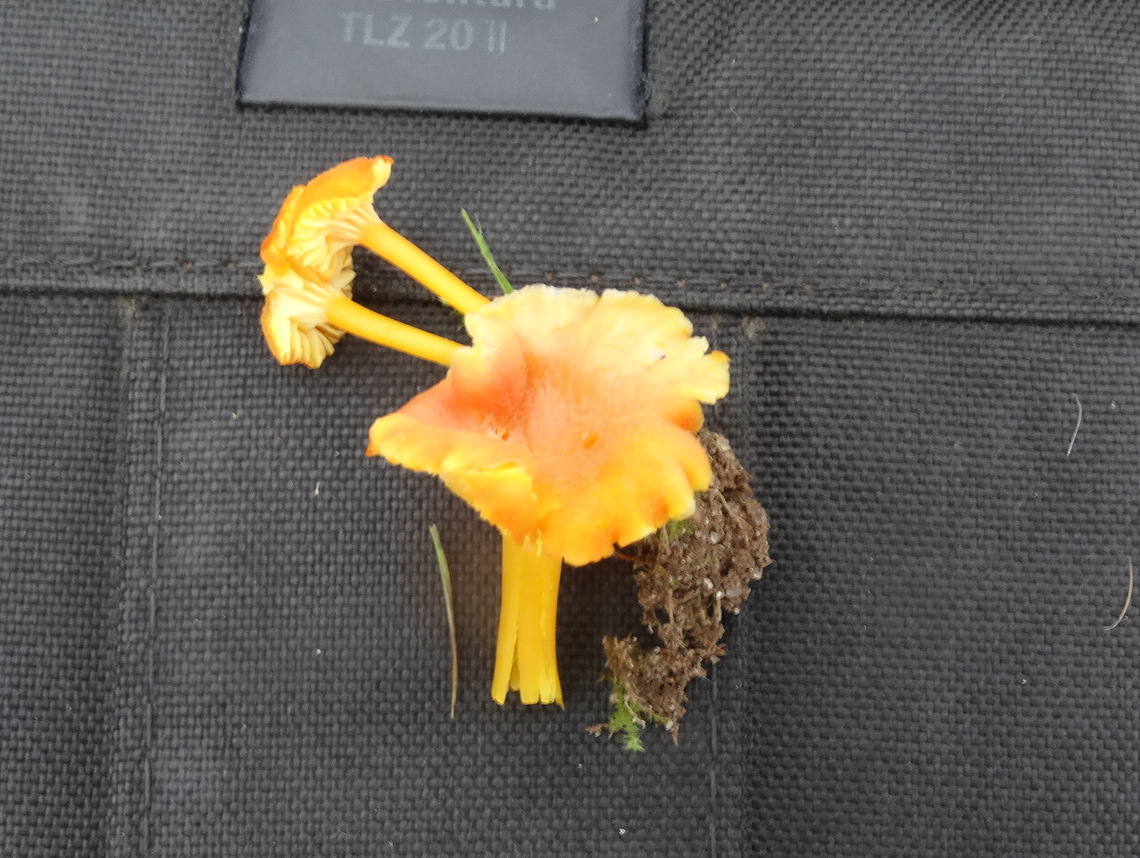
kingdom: Fungi
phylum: Basidiomycota
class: Agaricomycetes
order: Agaricales
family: Hygrophoraceae
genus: Hygrocybe
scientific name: Hygrocybe cantharellus
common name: kantarel-vokshat
